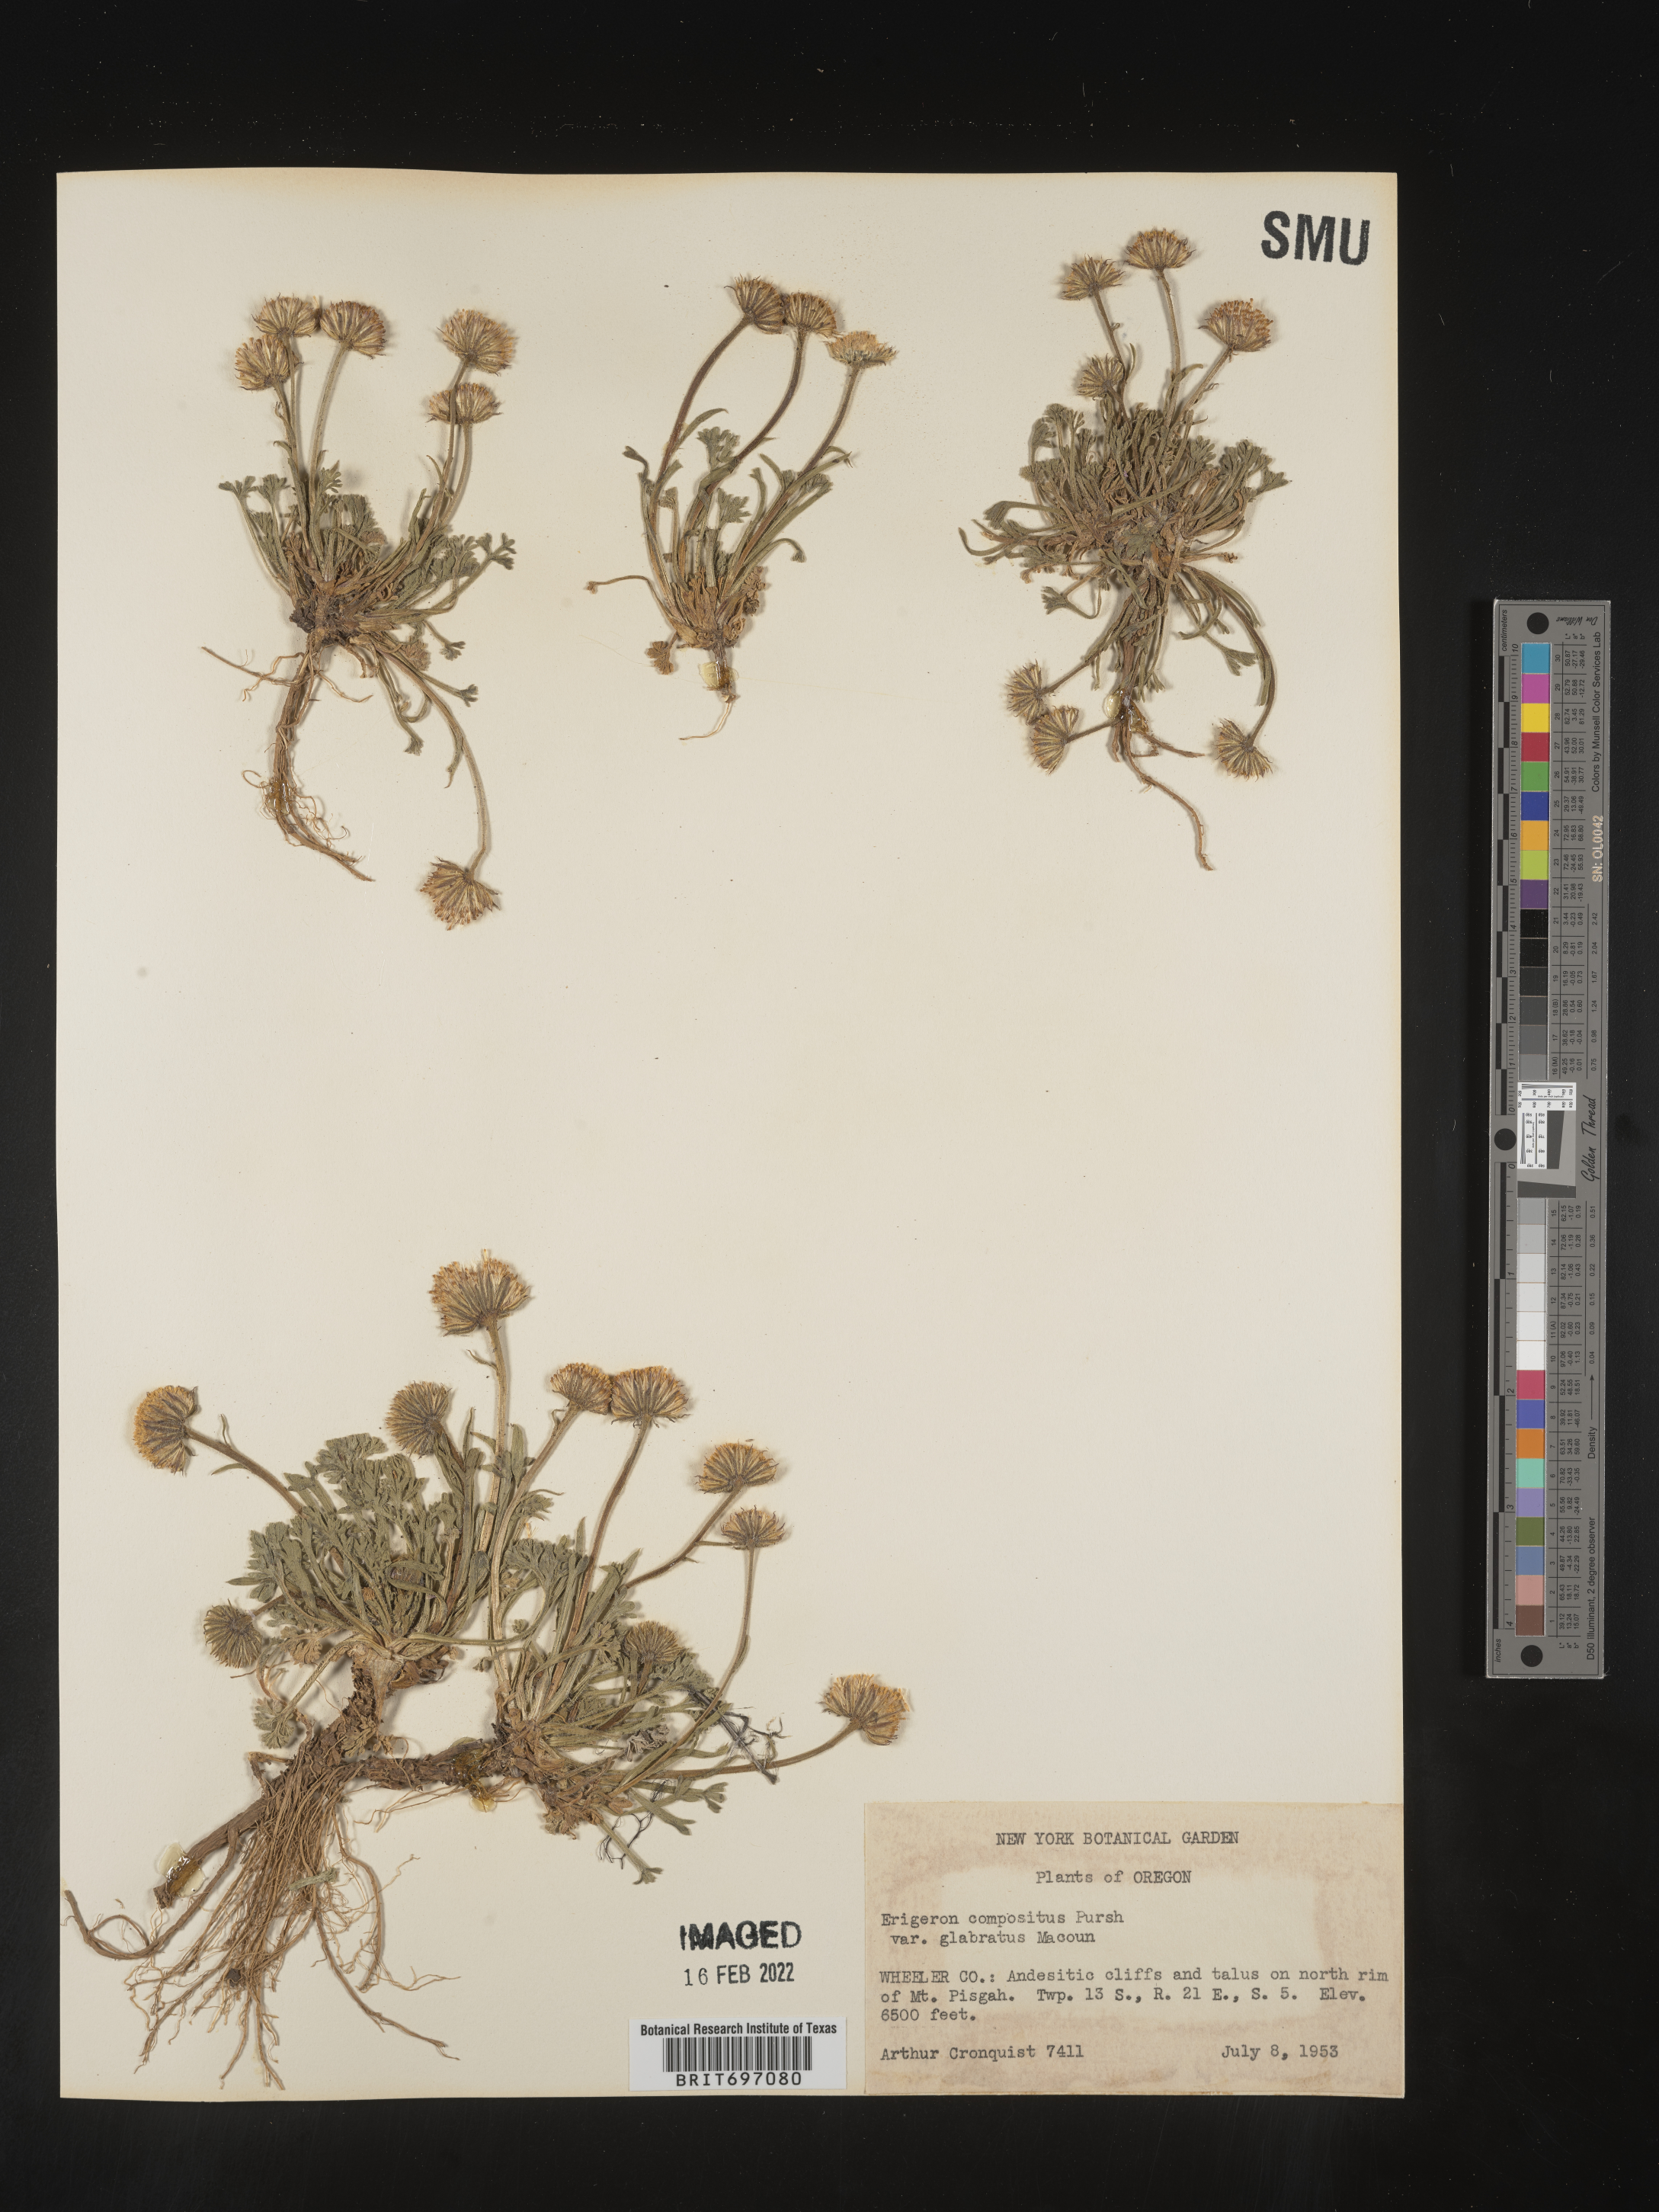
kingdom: Plantae
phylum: Tracheophyta
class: Magnoliopsida
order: Asterales
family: Asteraceae
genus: Erigeron
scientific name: Erigeron compositus
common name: Dwarf mountain fleabane
